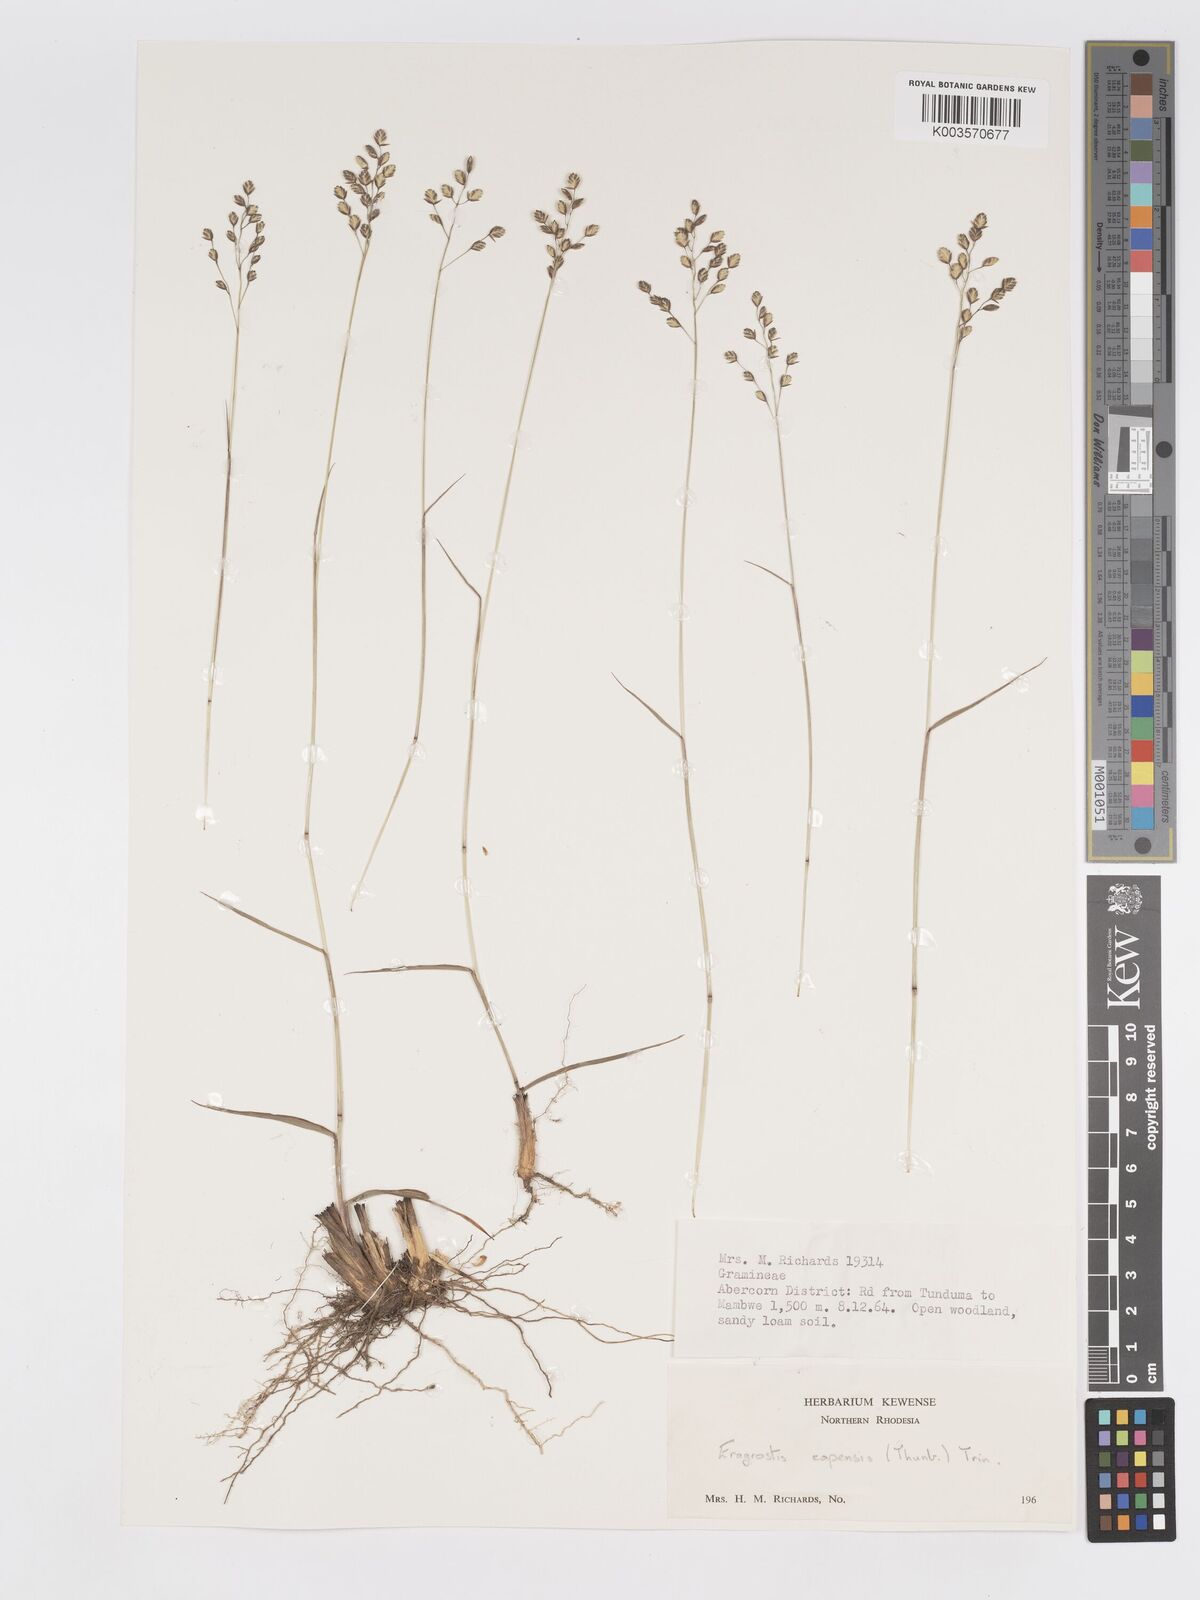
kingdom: Plantae
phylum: Tracheophyta
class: Liliopsida
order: Poales
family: Poaceae
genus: Eragrostis
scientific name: Eragrostis capensis
